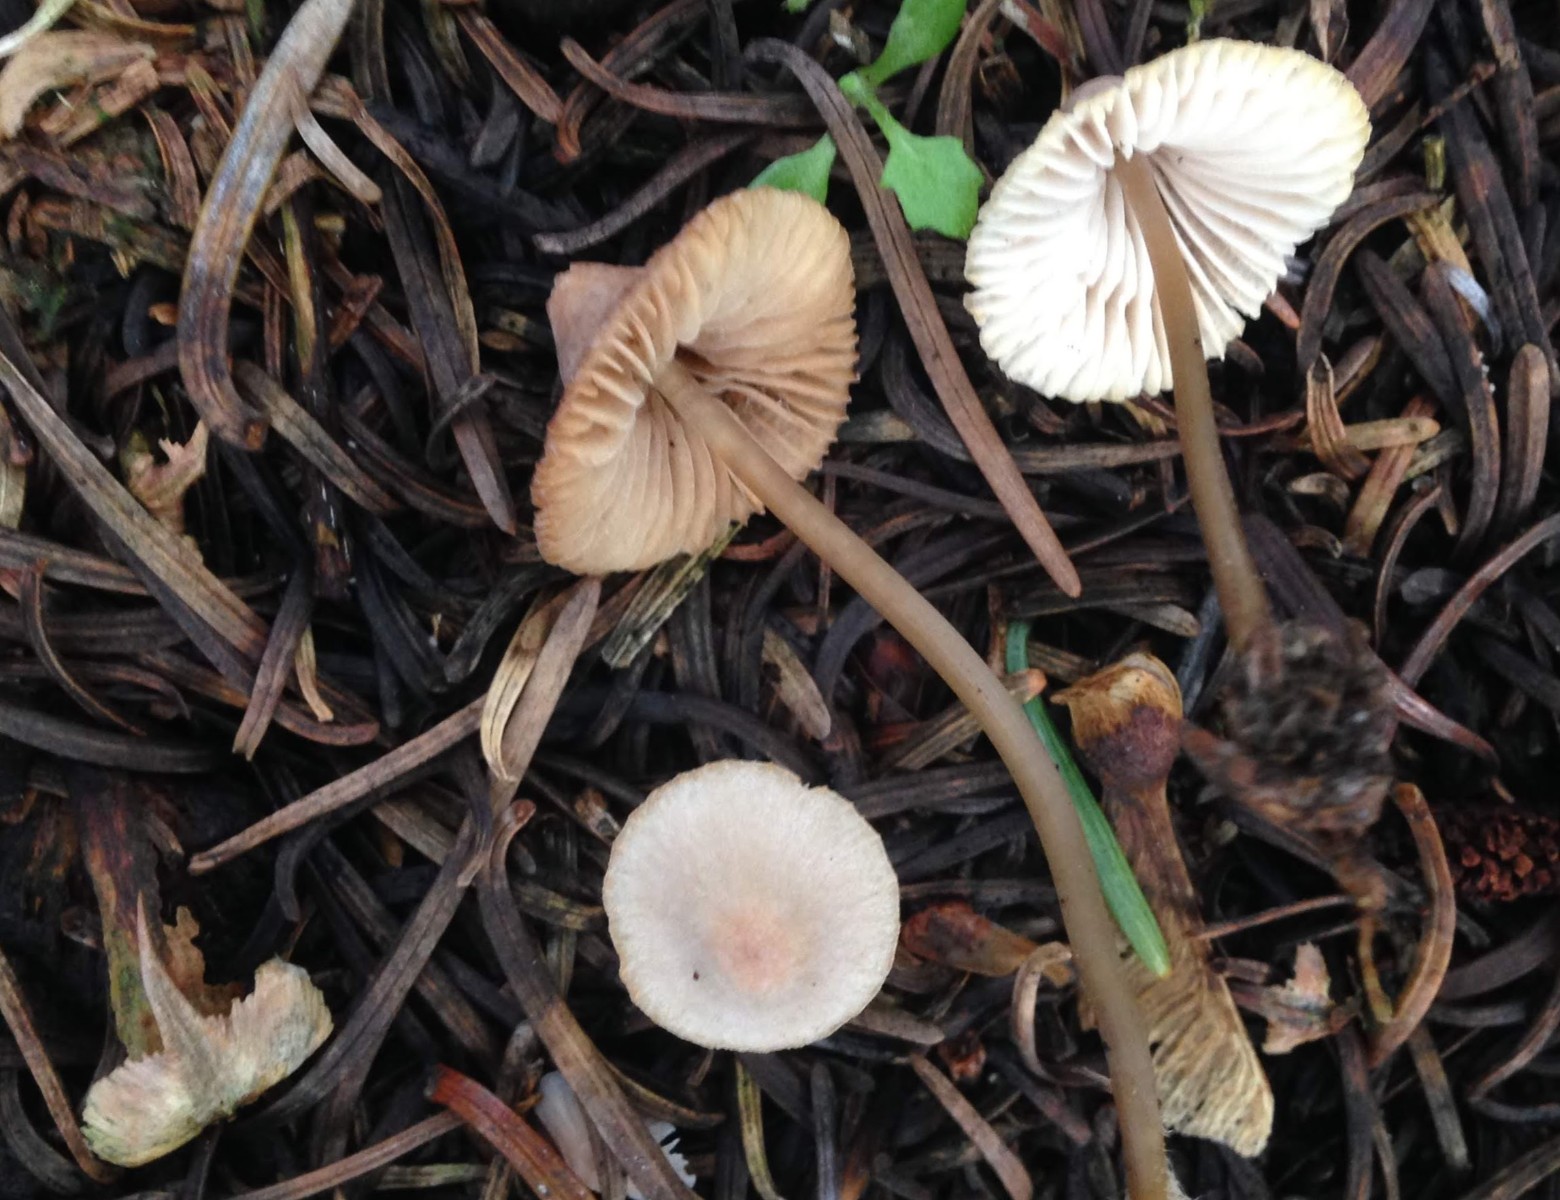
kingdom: Fungi
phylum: Basidiomycota
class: Agaricomycetes
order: Agaricales
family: Mycenaceae
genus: Mycena
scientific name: Mycena metata
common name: rødlig huesvamp
